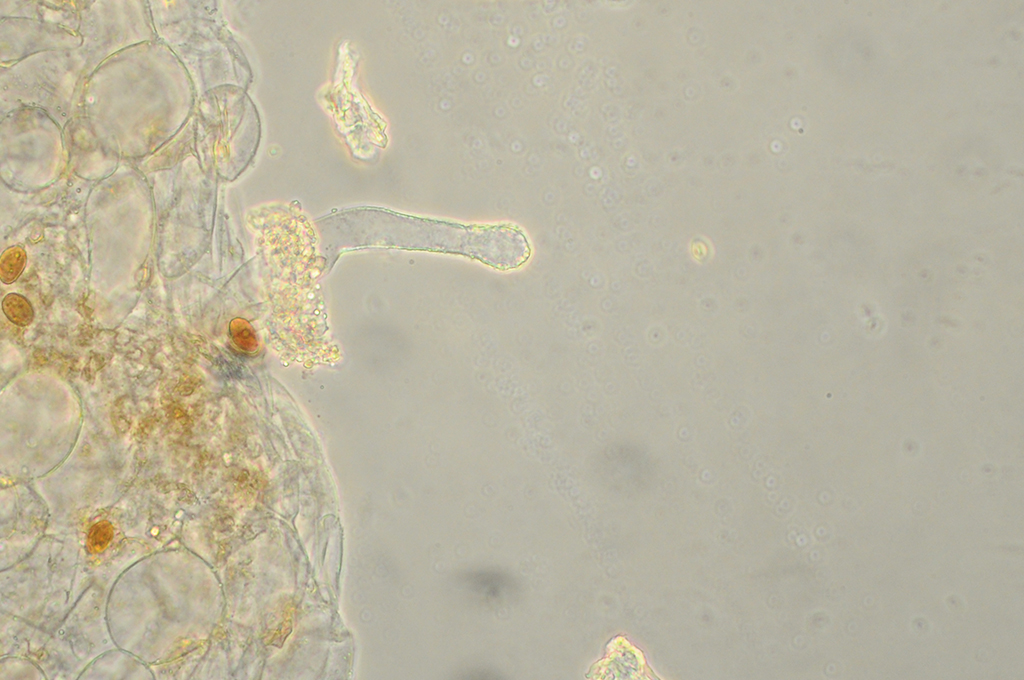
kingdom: Fungi
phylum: Basidiomycota
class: Agaricomycetes
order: Agaricales
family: Psathyrellaceae
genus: Tulosesus
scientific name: Tulosesus heterothrix
